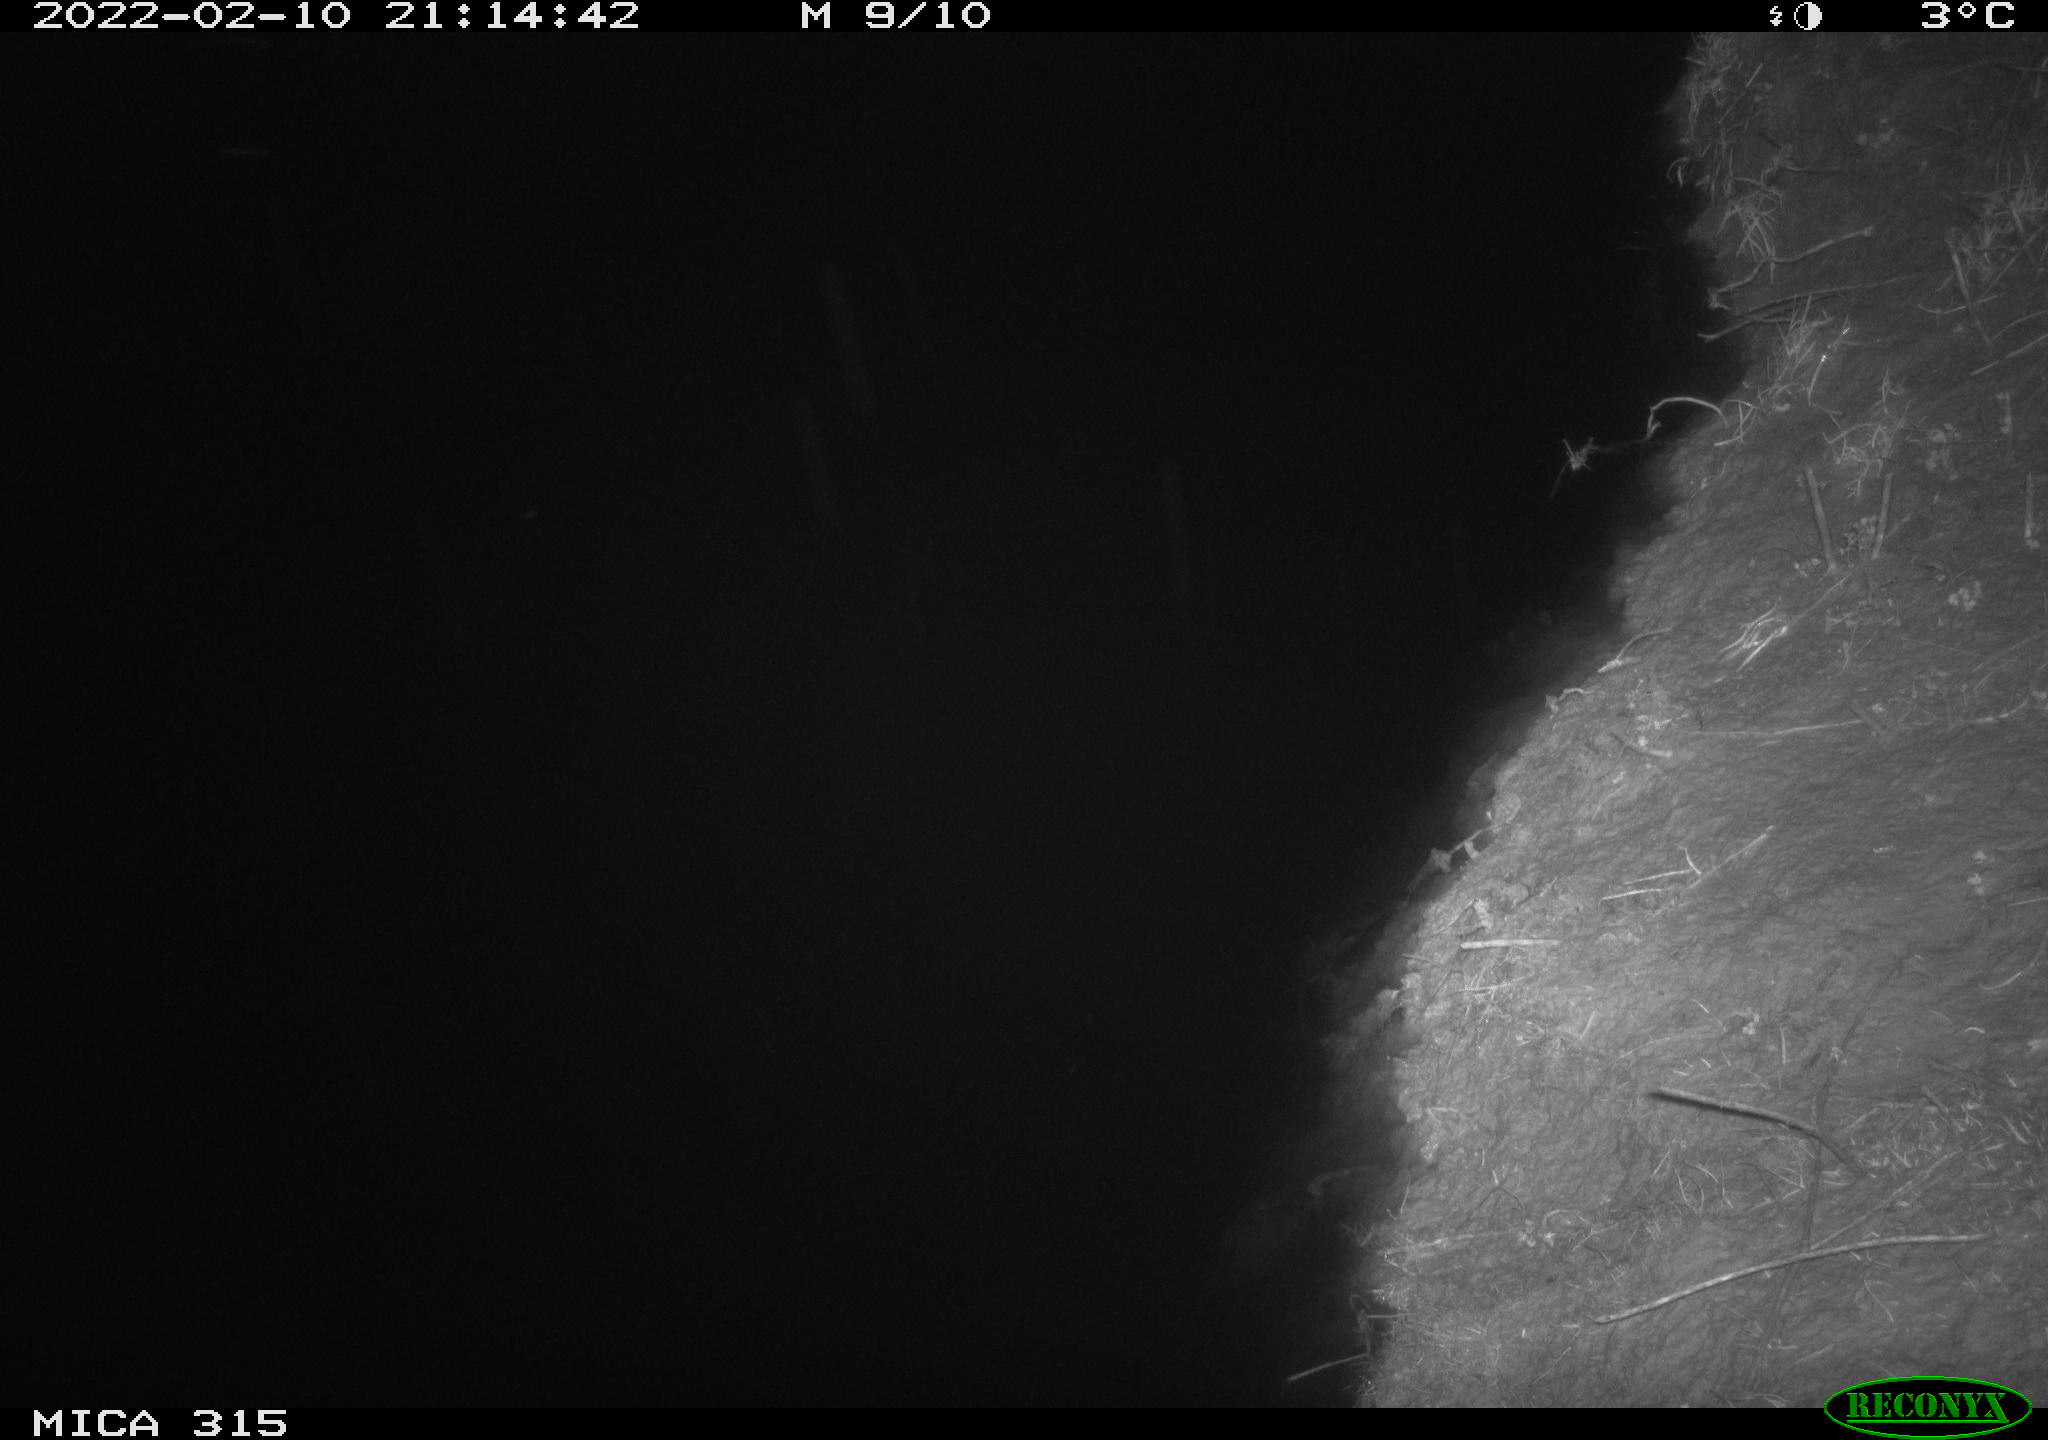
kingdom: Animalia
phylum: Chordata
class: Mammalia
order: Rodentia
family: Muridae
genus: Rattus
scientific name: Rattus norvegicus
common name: Brown rat
